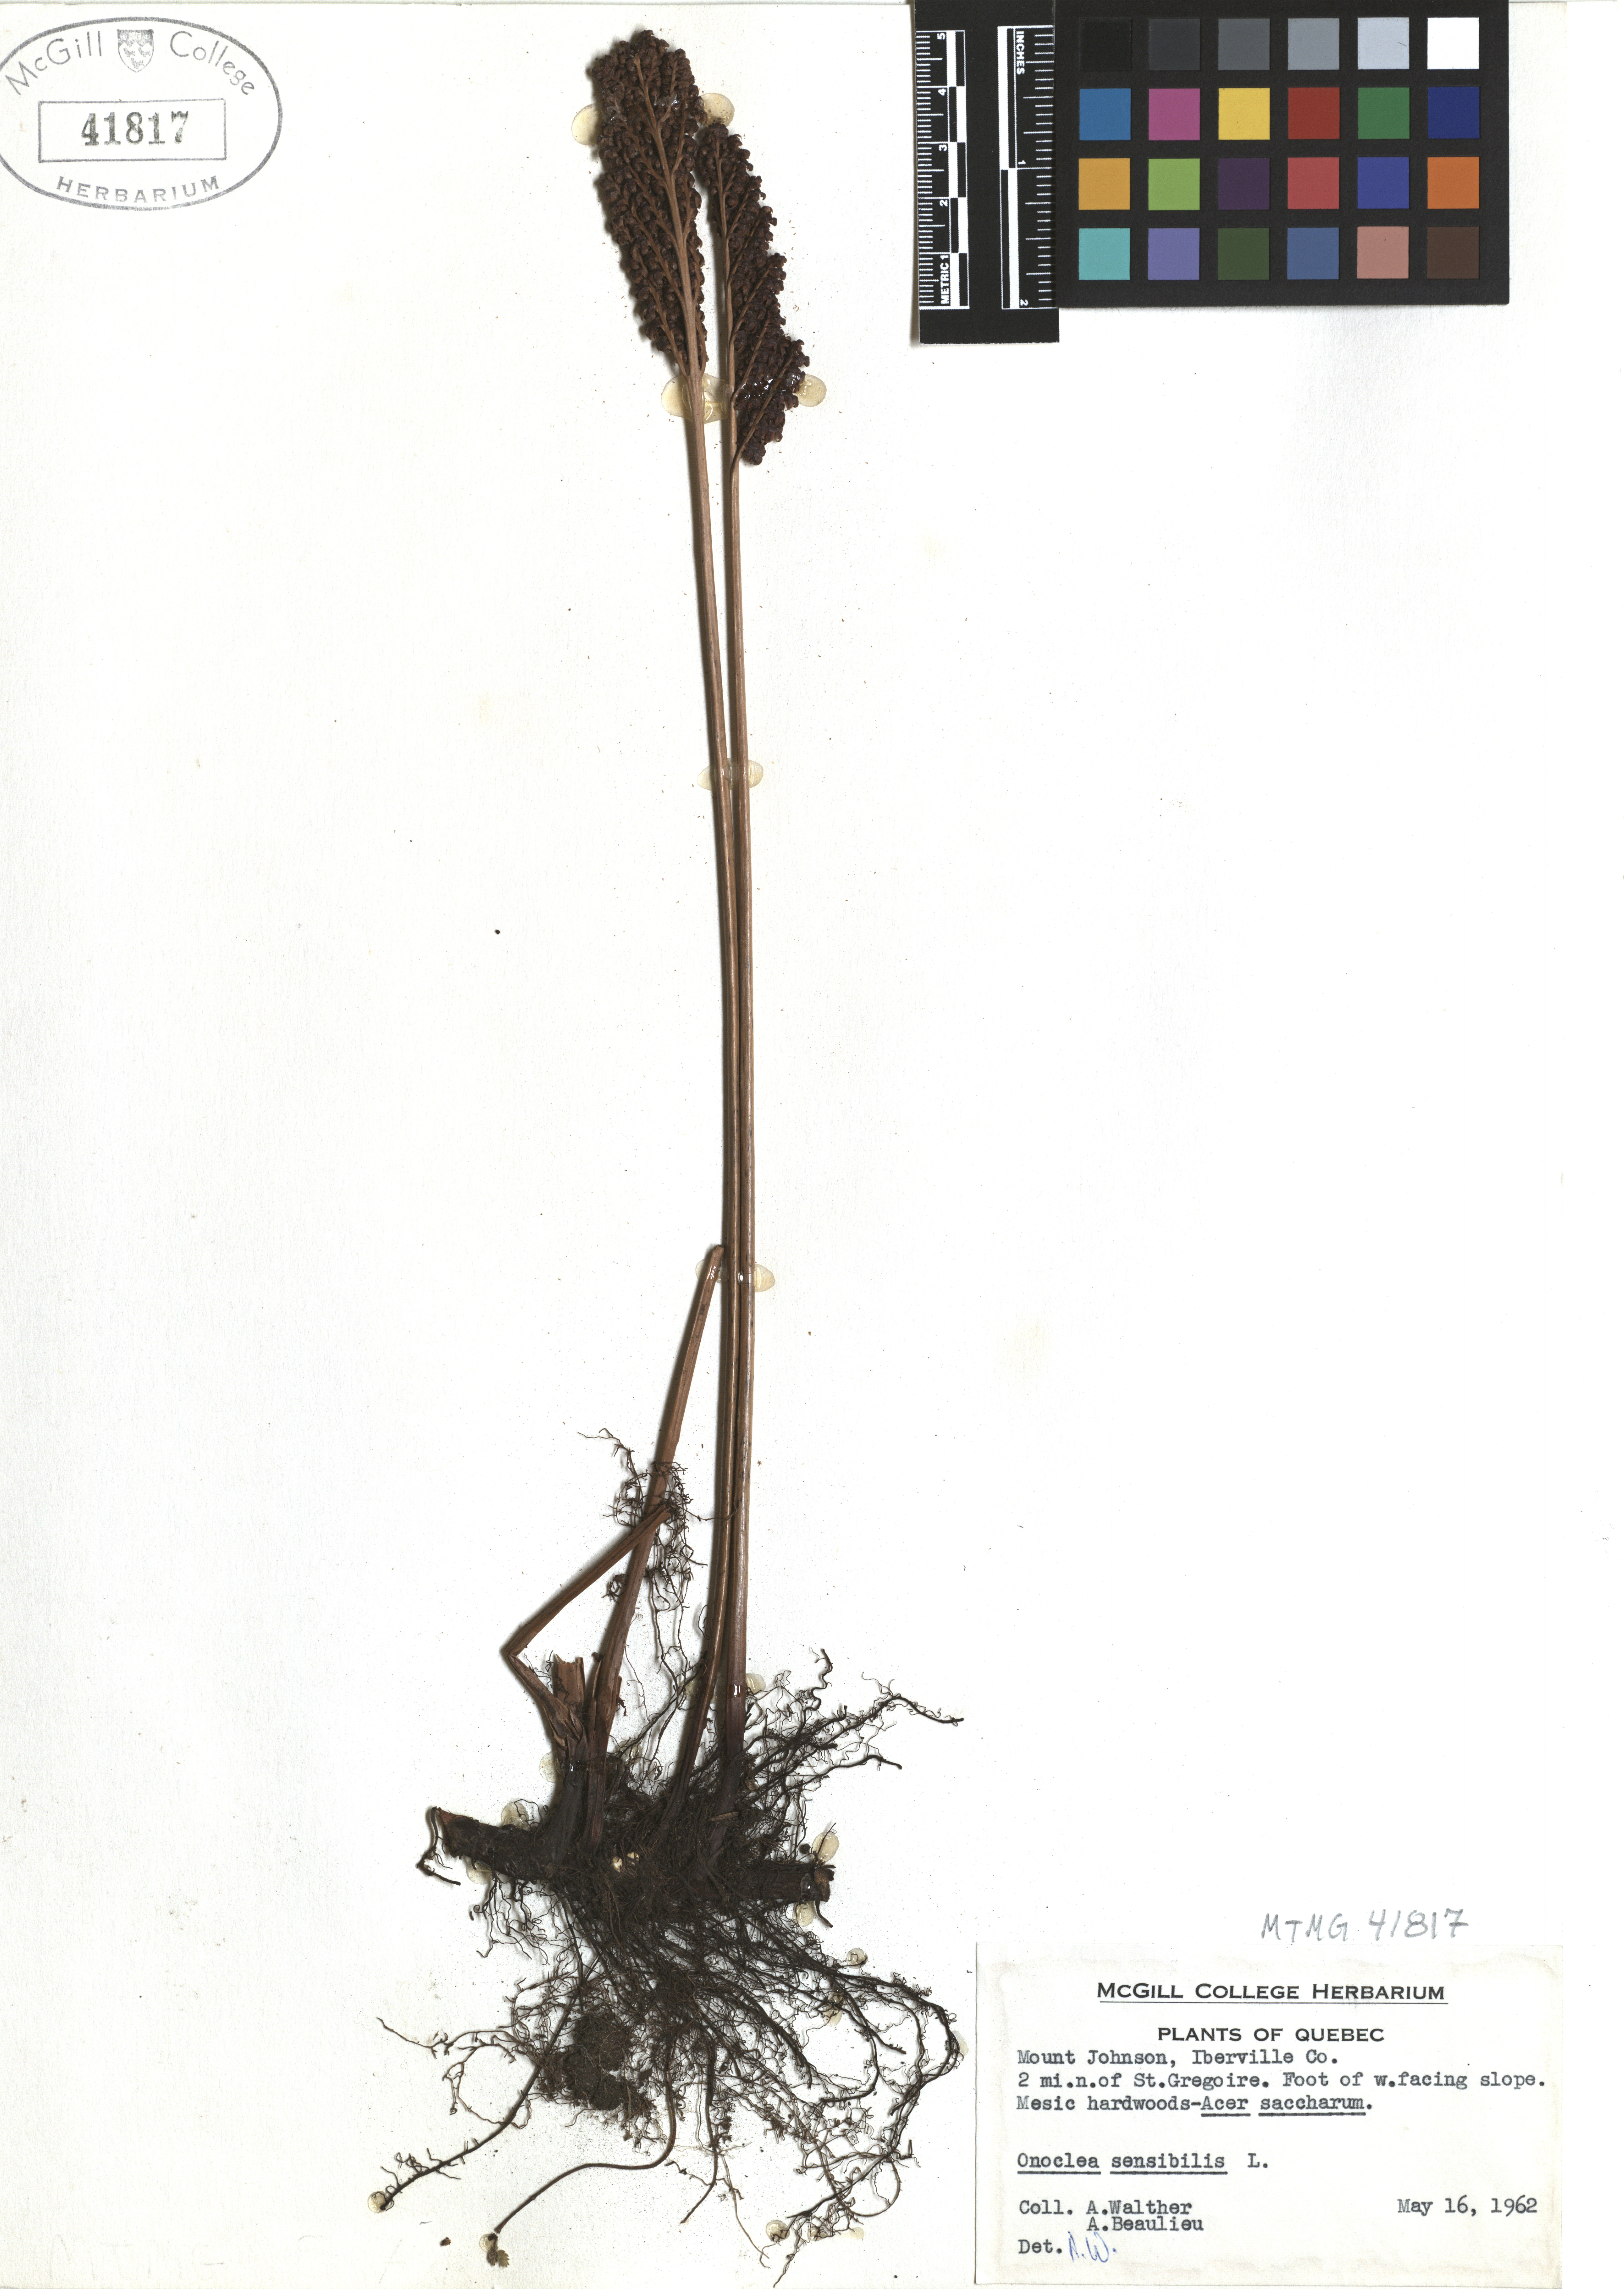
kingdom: Plantae
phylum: Tracheophyta
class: Polypodiopsida
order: Polypodiales
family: Onocleaceae
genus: Onoclea
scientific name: Onoclea sensibilis
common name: Sensitive fern
